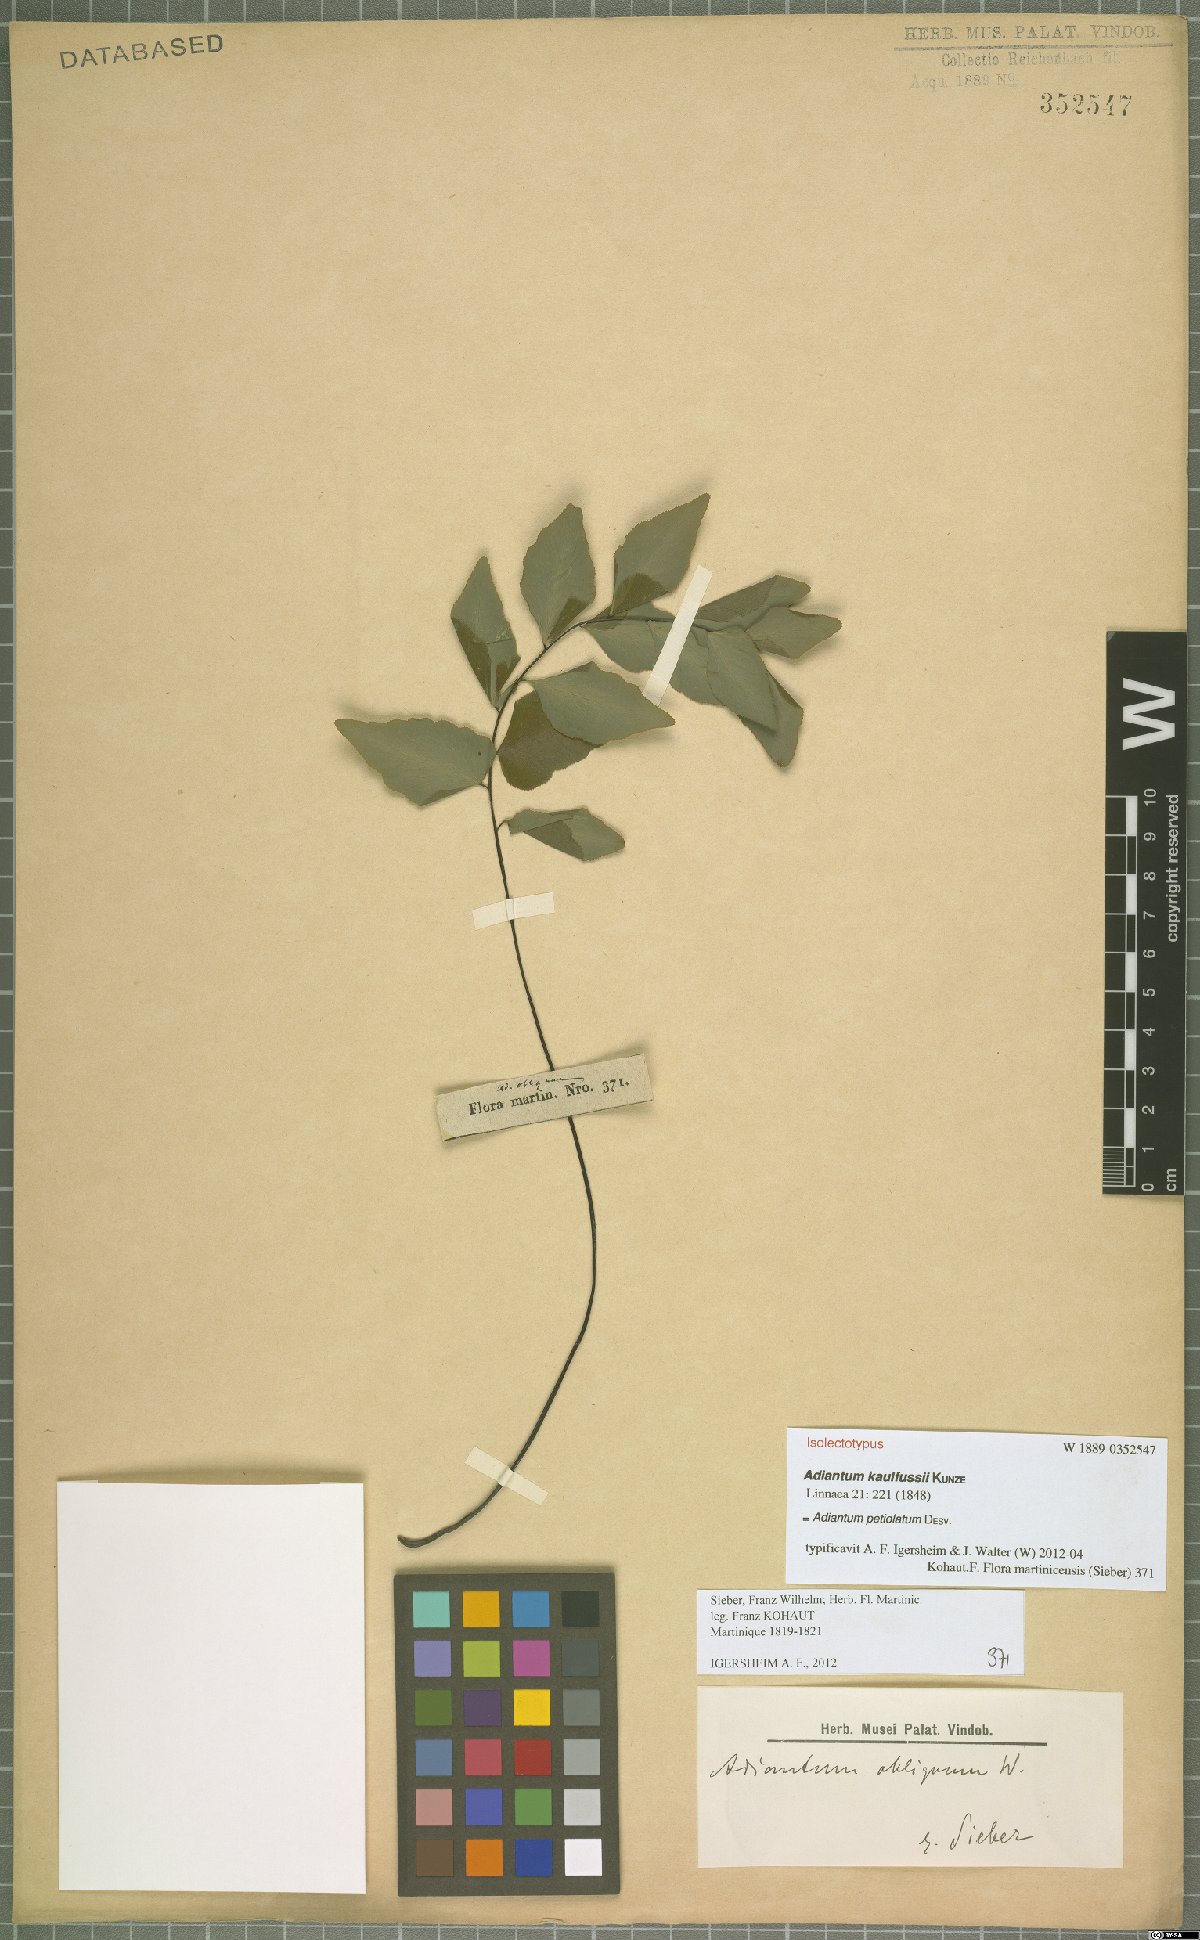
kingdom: Plantae
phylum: Tracheophyta
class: Polypodiopsida
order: Polypodiales
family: Pteridaceae
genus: Adiantum
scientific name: Adiantum petiolatum
